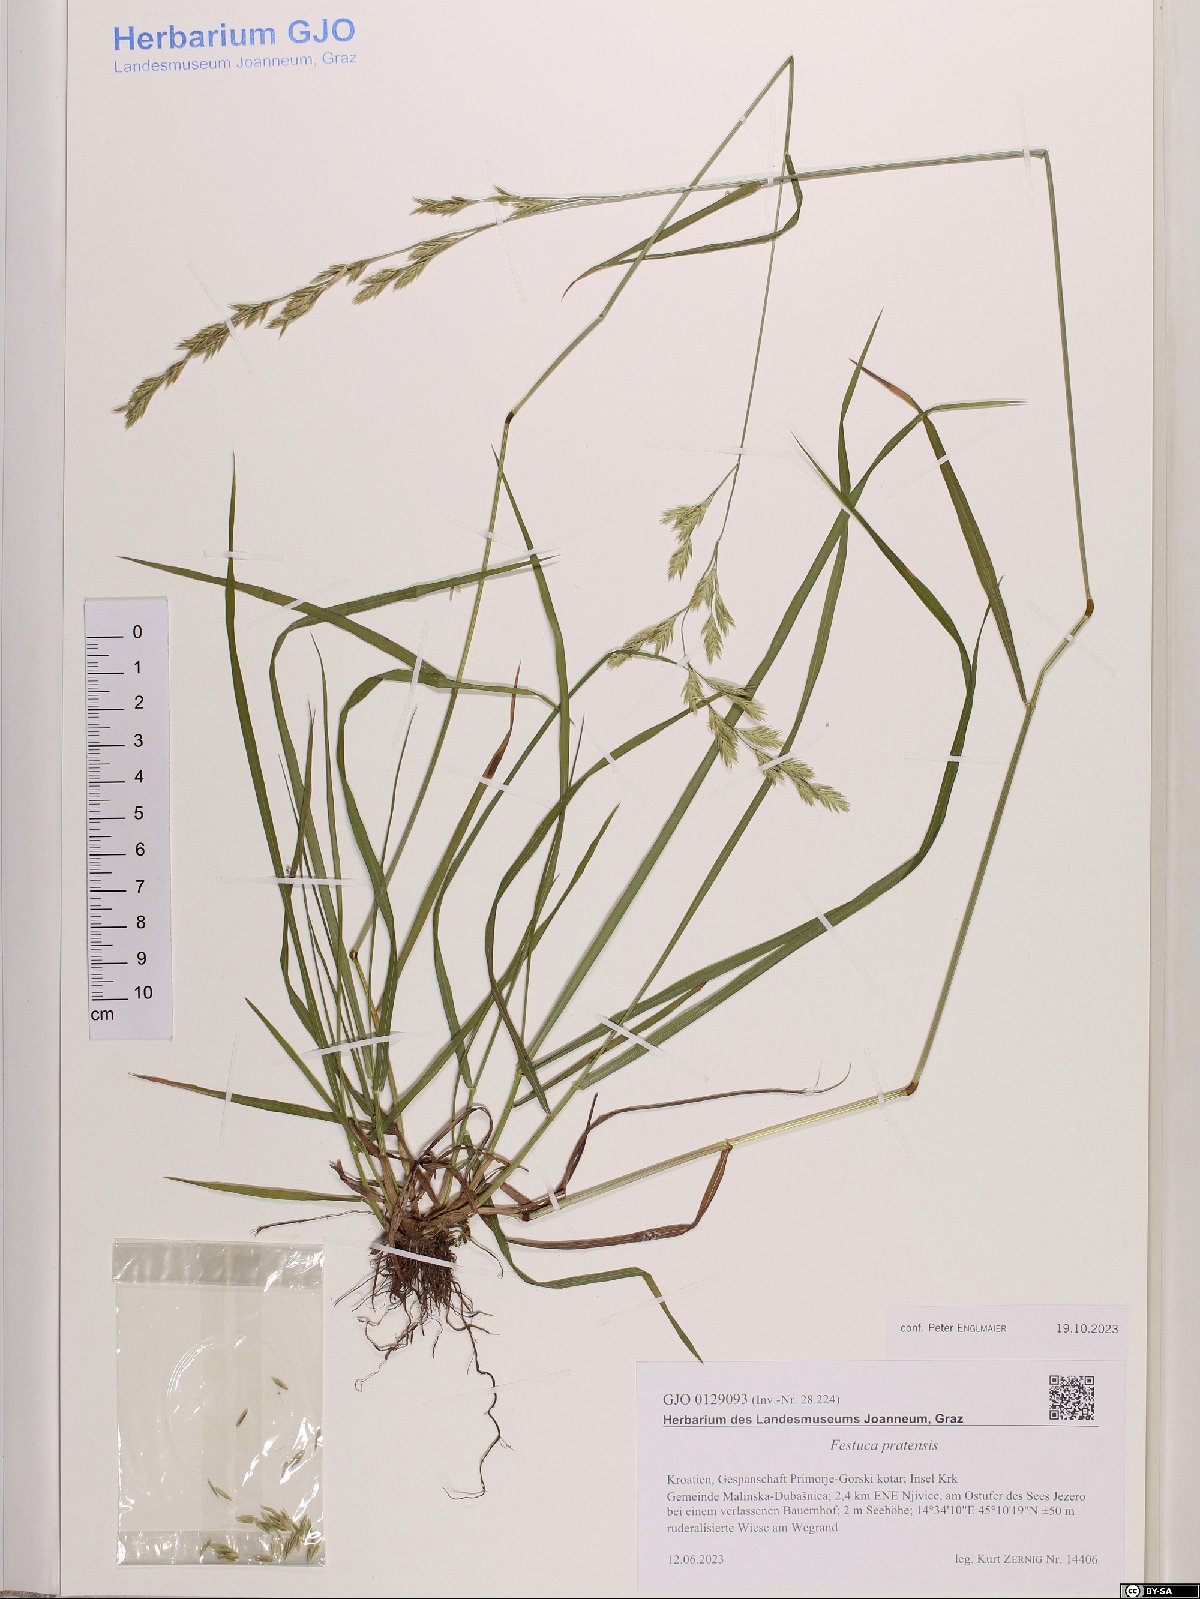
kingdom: Plantae
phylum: Tracheophyta
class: Liliopsida
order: Poales
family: Poaceae
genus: Lolium
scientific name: Lolium pratense
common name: Dover grass
